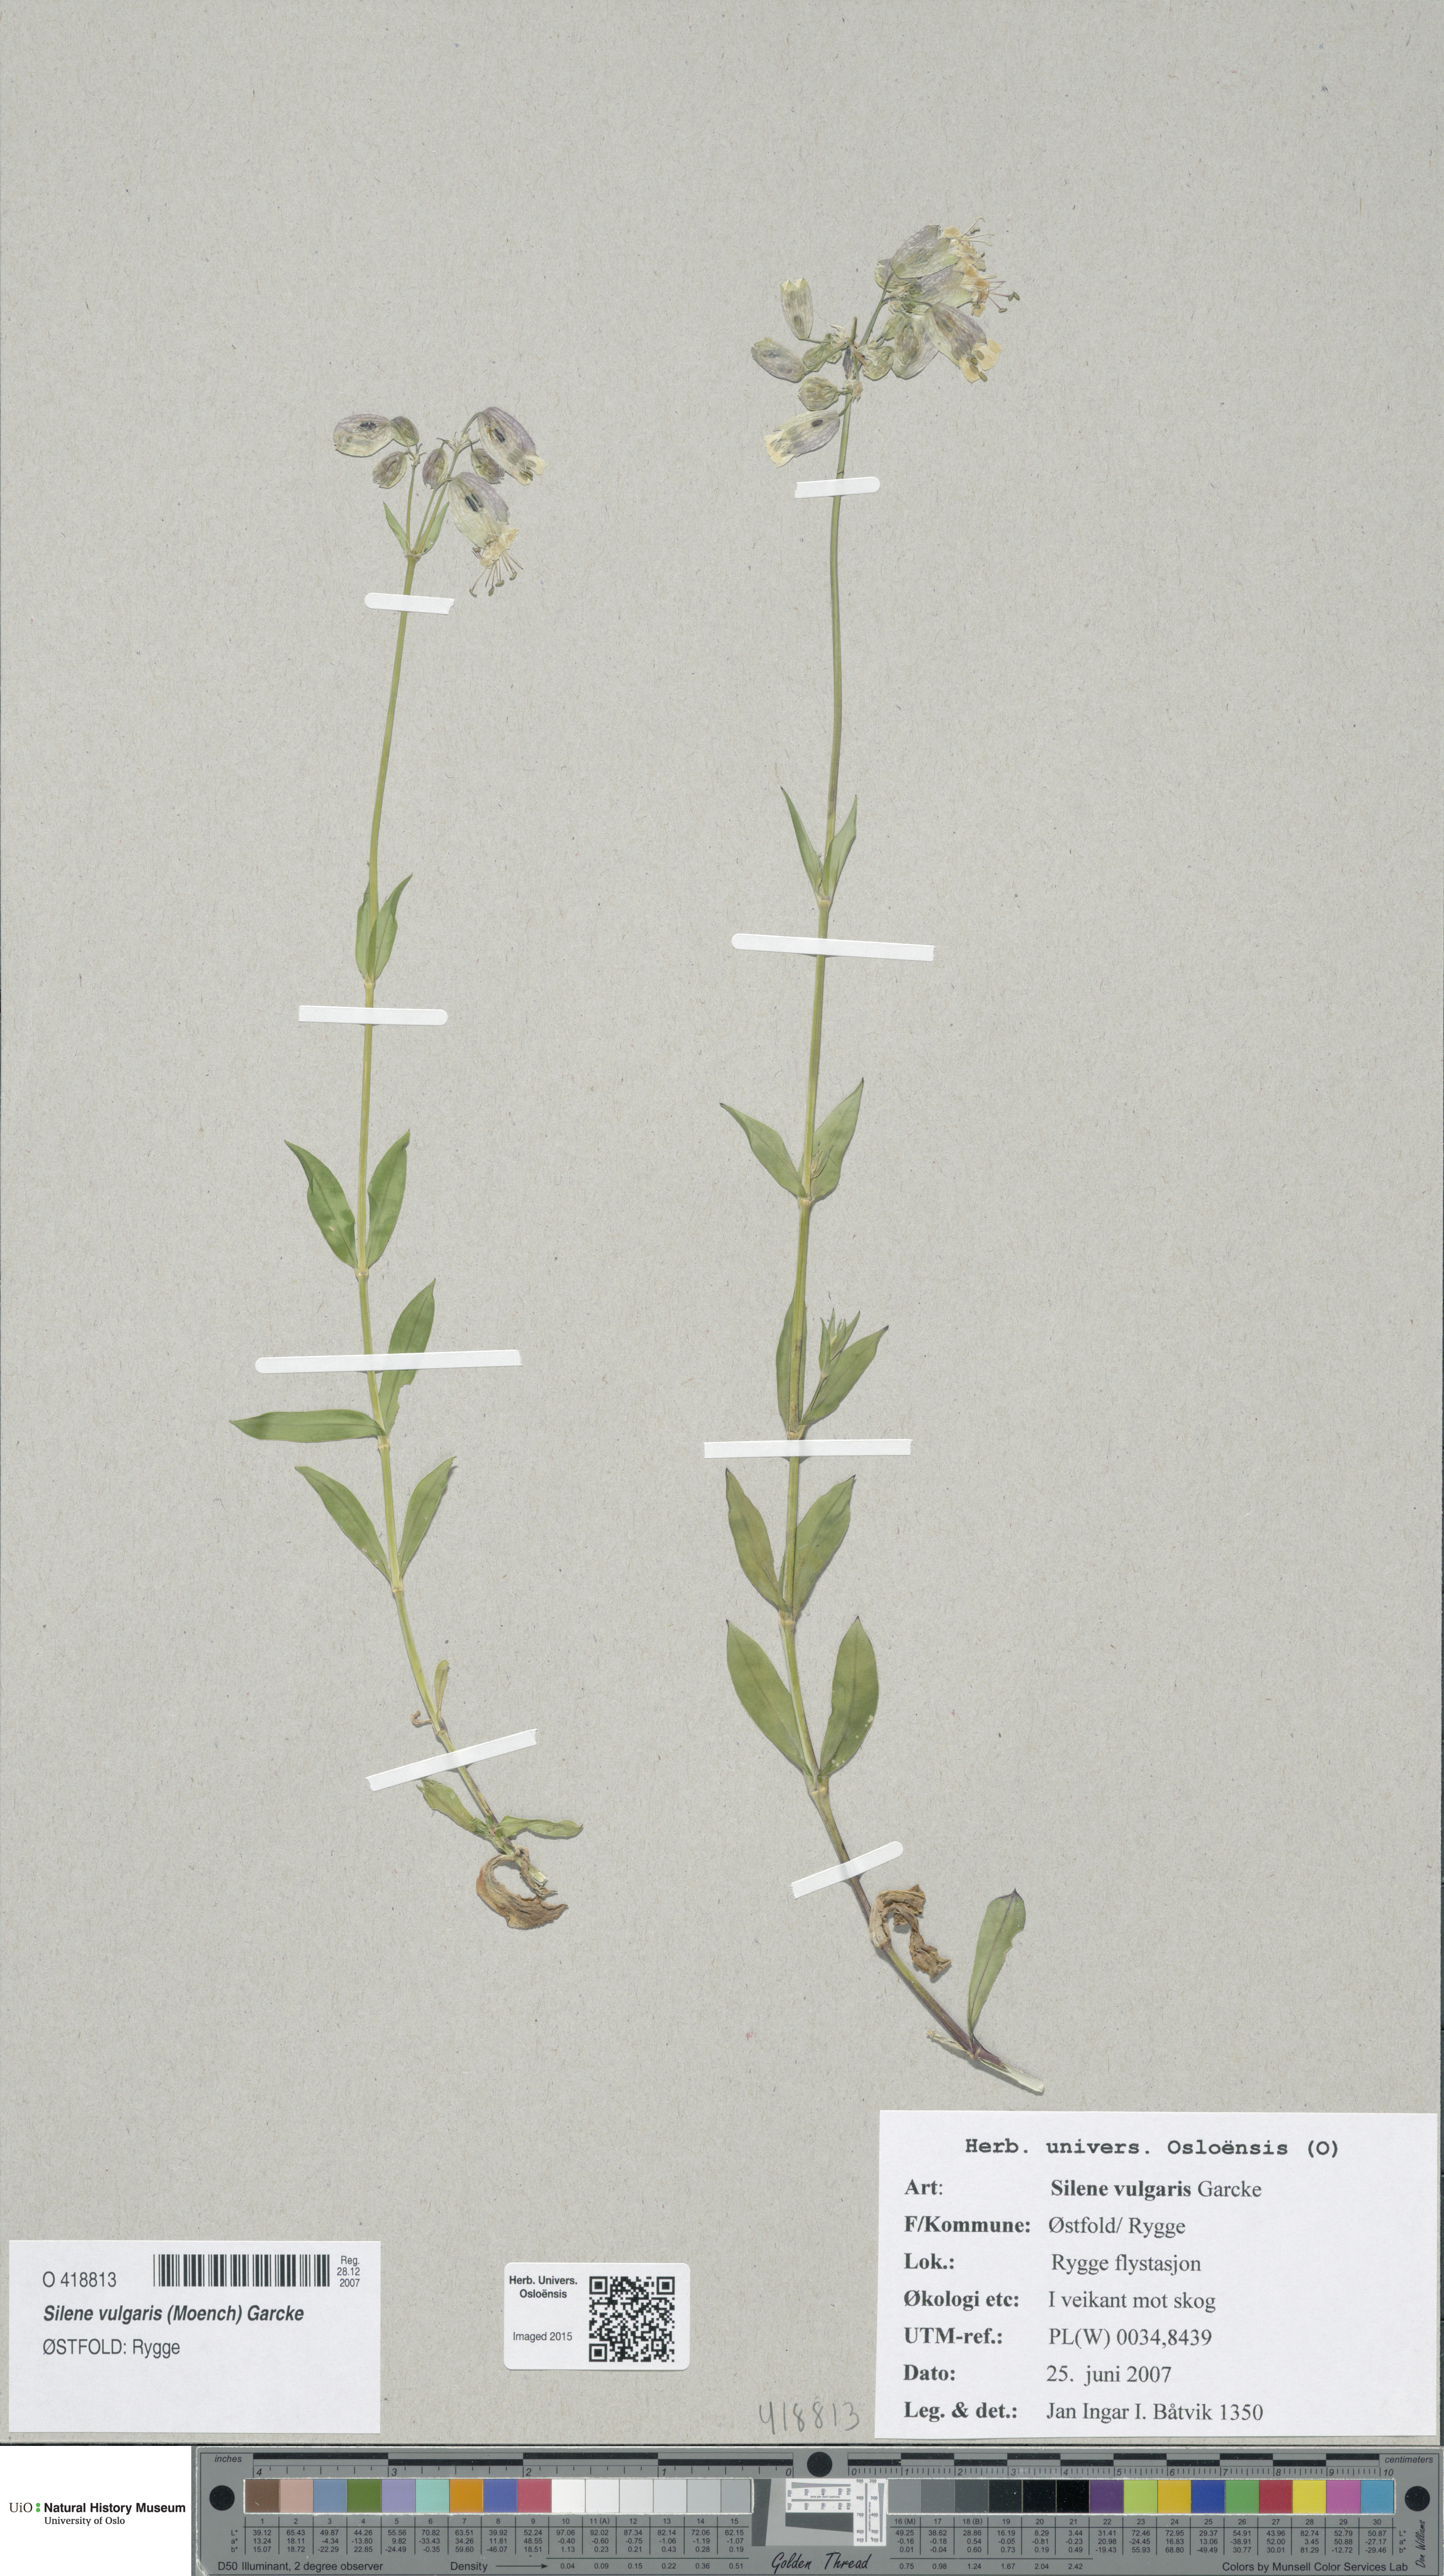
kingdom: Plantae
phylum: Tracheophyta
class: Magnoliopsida
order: Caryophyllales
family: Caryophyllaceae
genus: Silene
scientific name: Silene vulgaris
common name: Bladder campion
